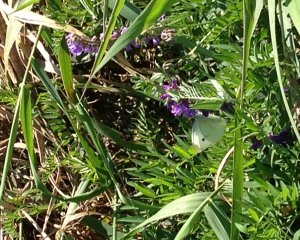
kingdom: Animalia
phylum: Arthropoda
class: Insecta
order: Lepidoptera
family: Pieridae
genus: Pieris
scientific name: Pieris rapae
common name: Cabbage White
